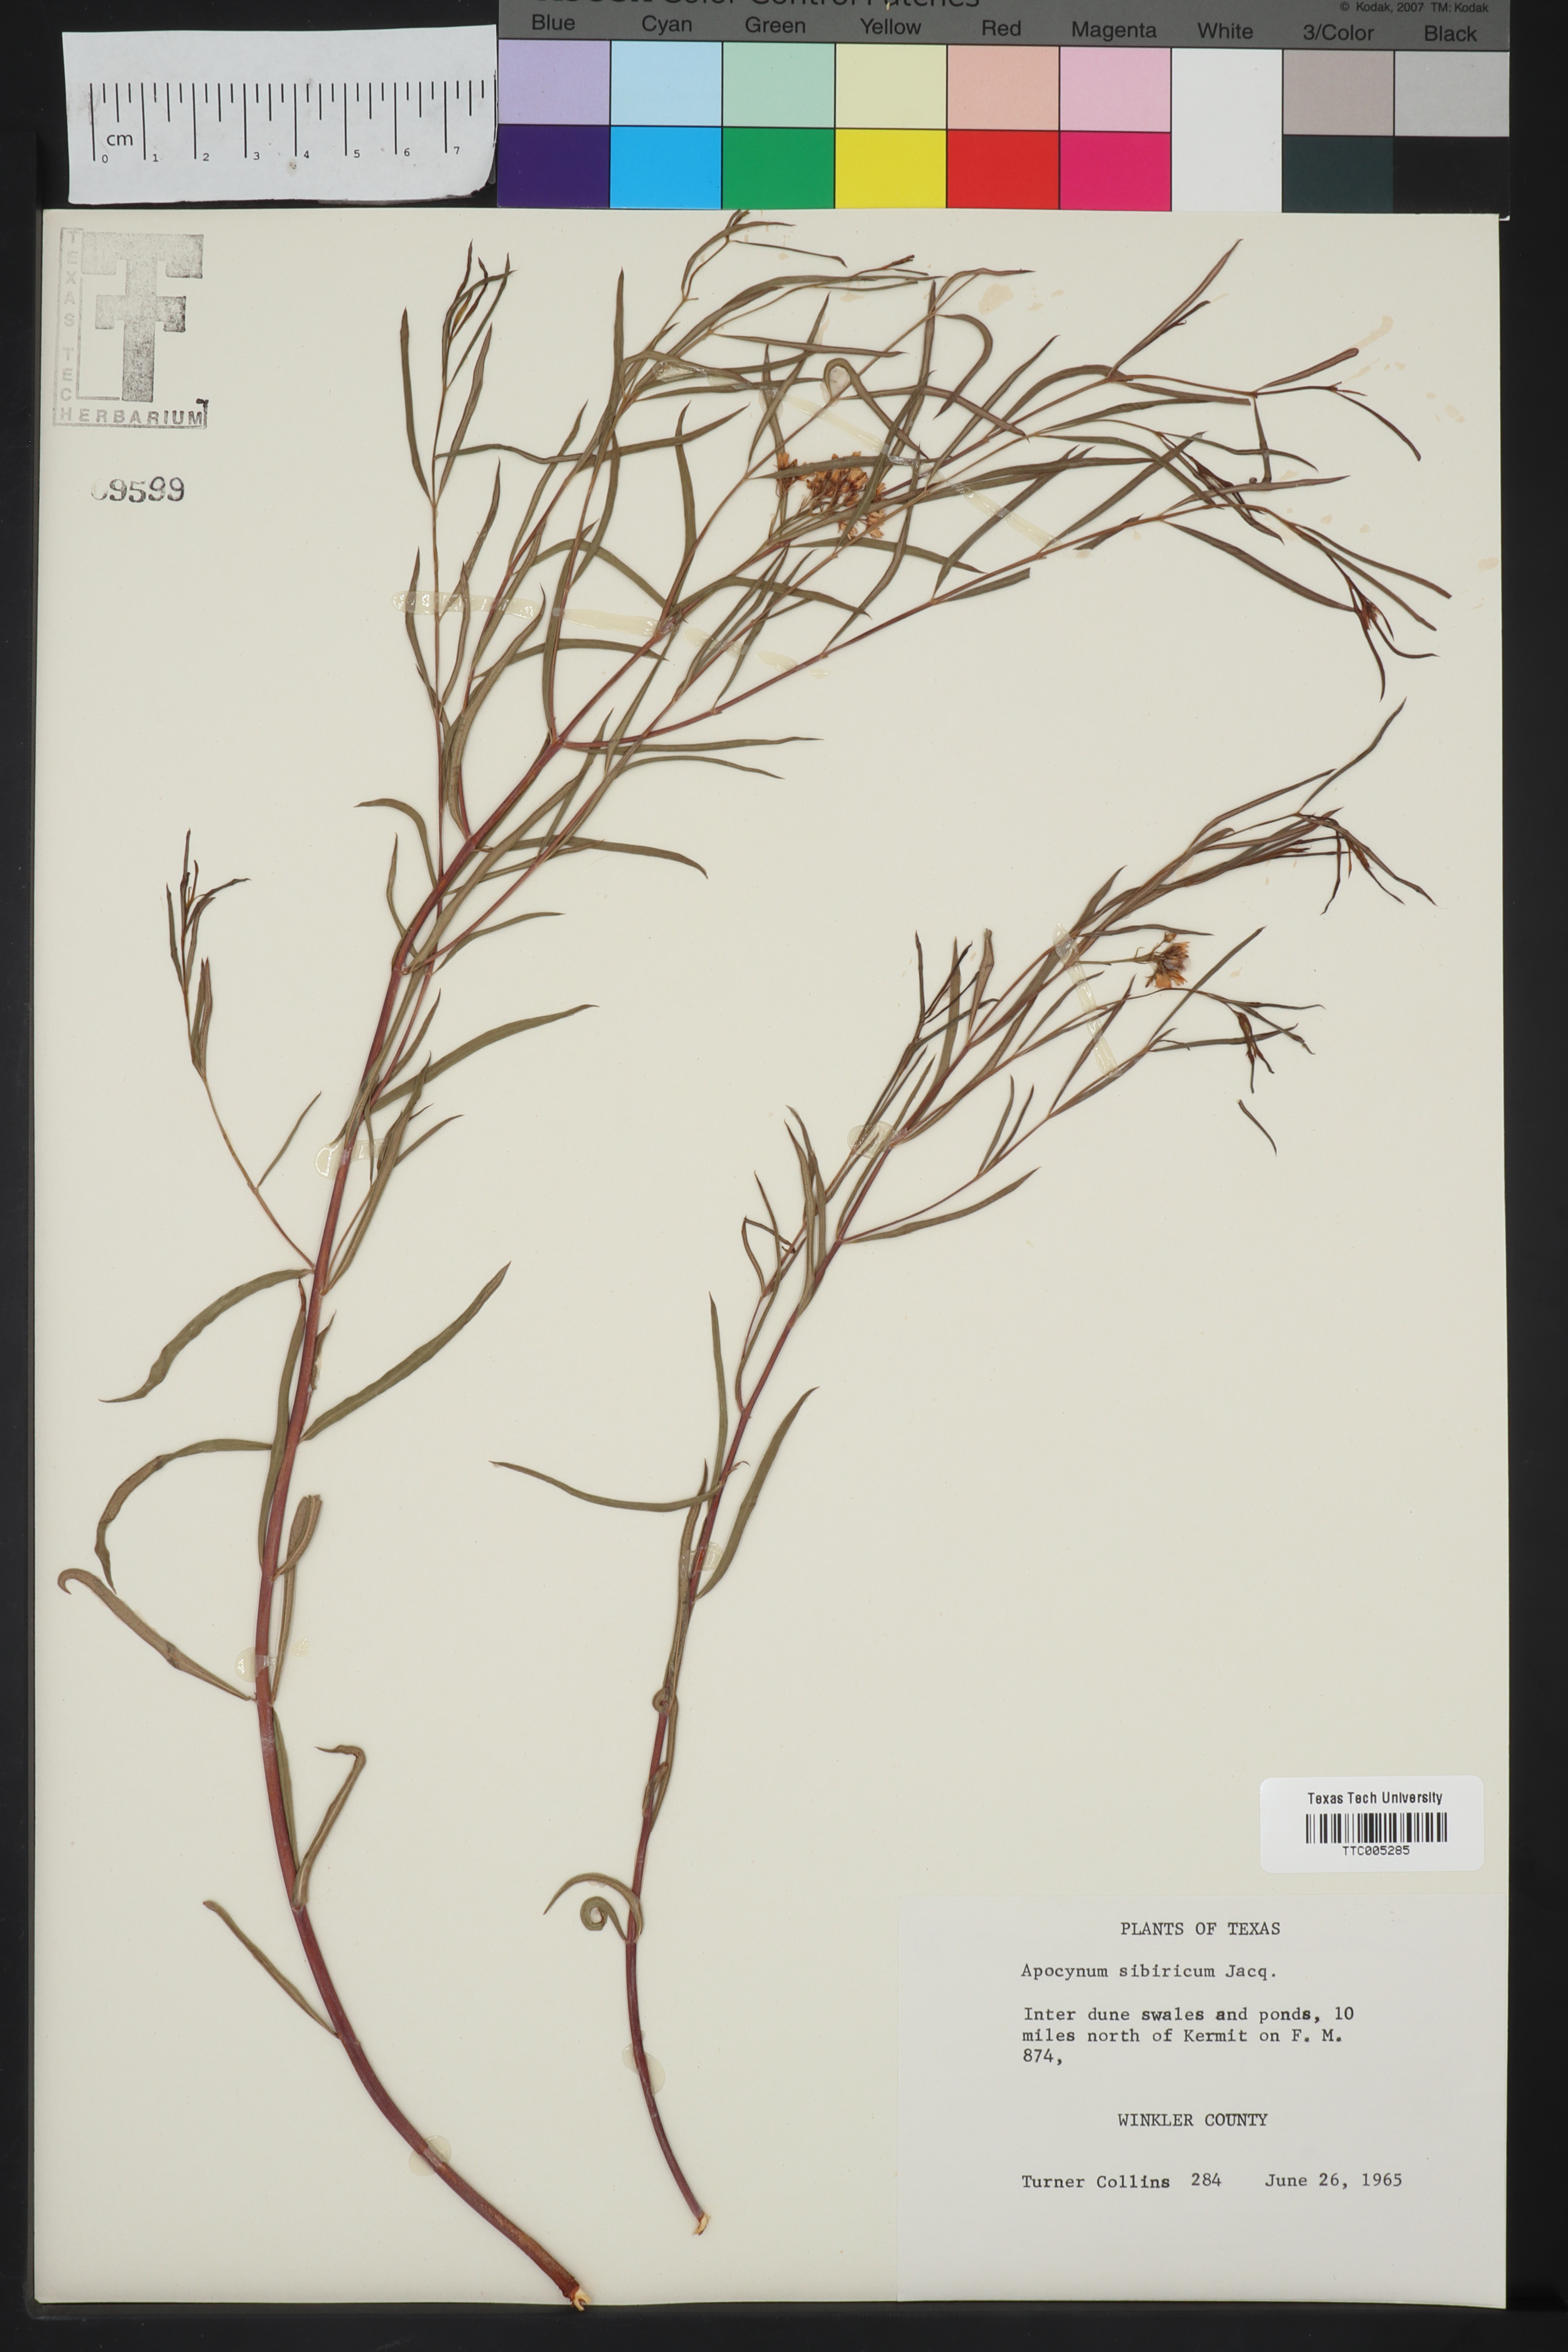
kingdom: Plantae
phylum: Tracheophyta
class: Magnoliopsida
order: Gentianales
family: Apocynaceae
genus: Apocynum
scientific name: Apocynum cannabinum
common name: Hemp dogbane
